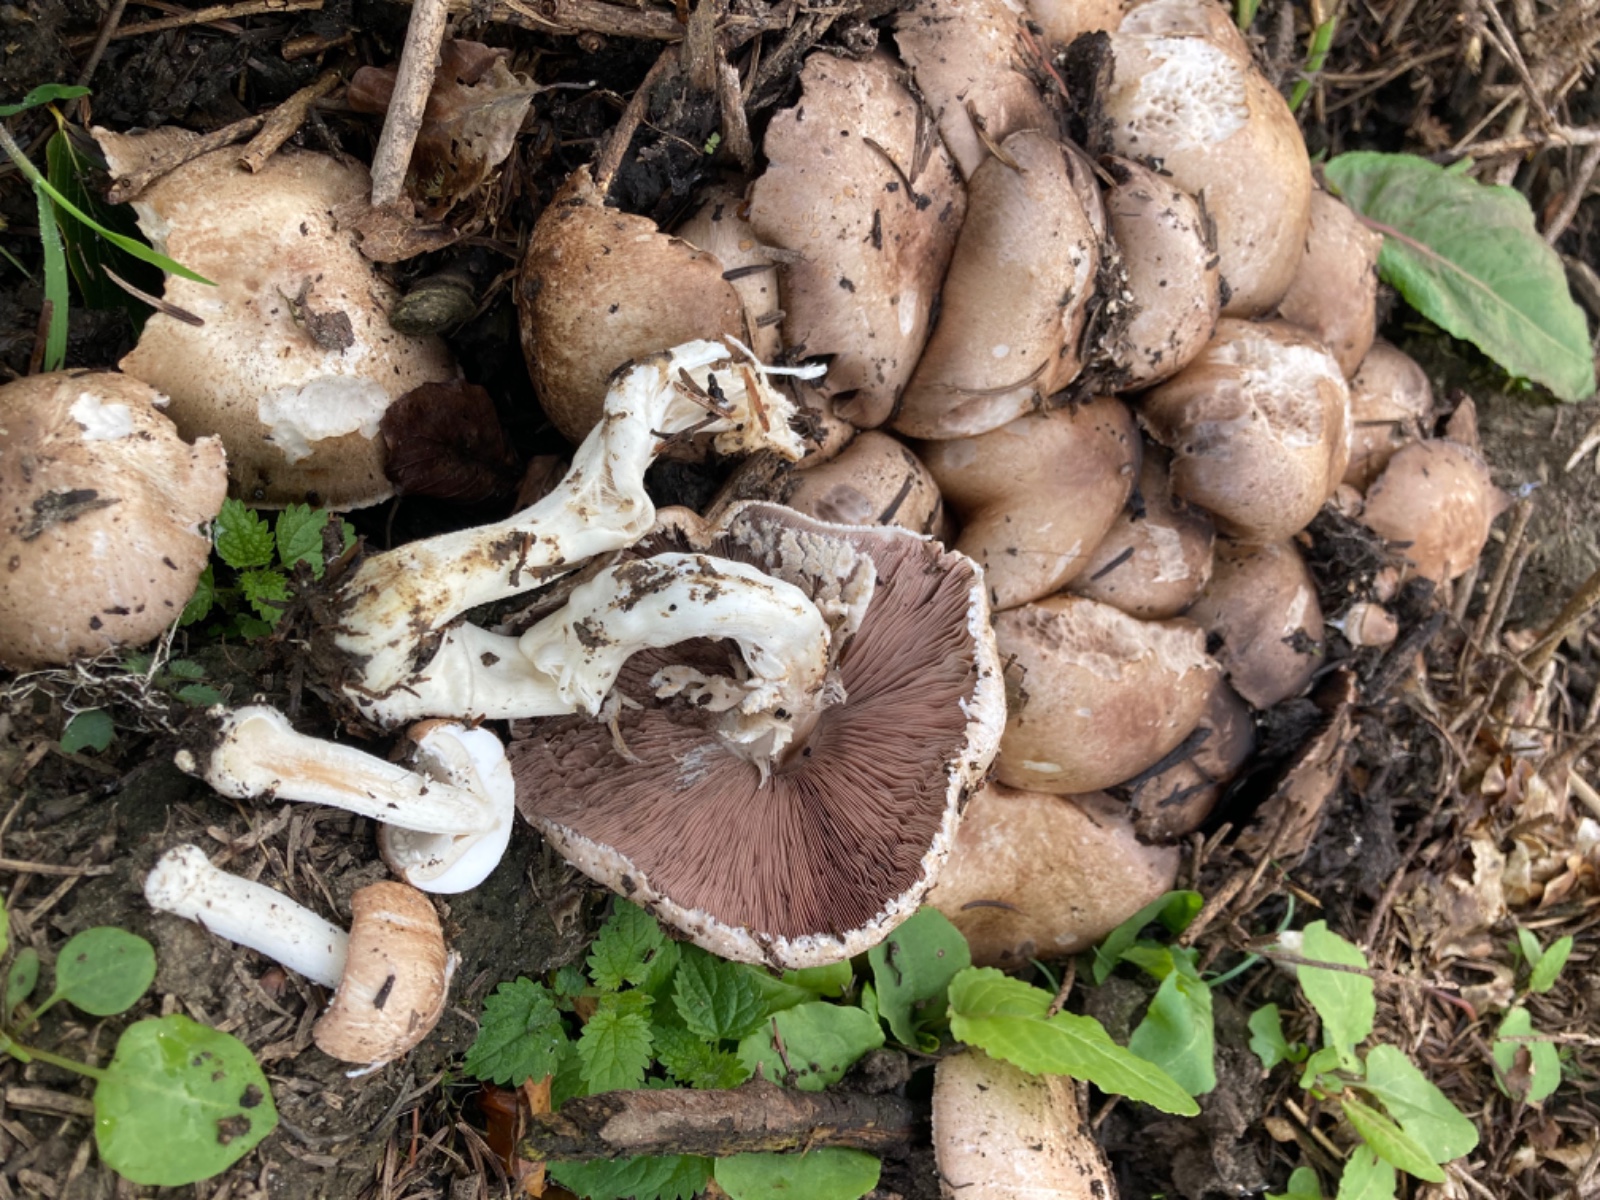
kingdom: Fungi
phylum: Basidiomycota
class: Agaricomycetes
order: Agaricales
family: Agaricaceae
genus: Agaricus
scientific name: Agaricus impudicus
